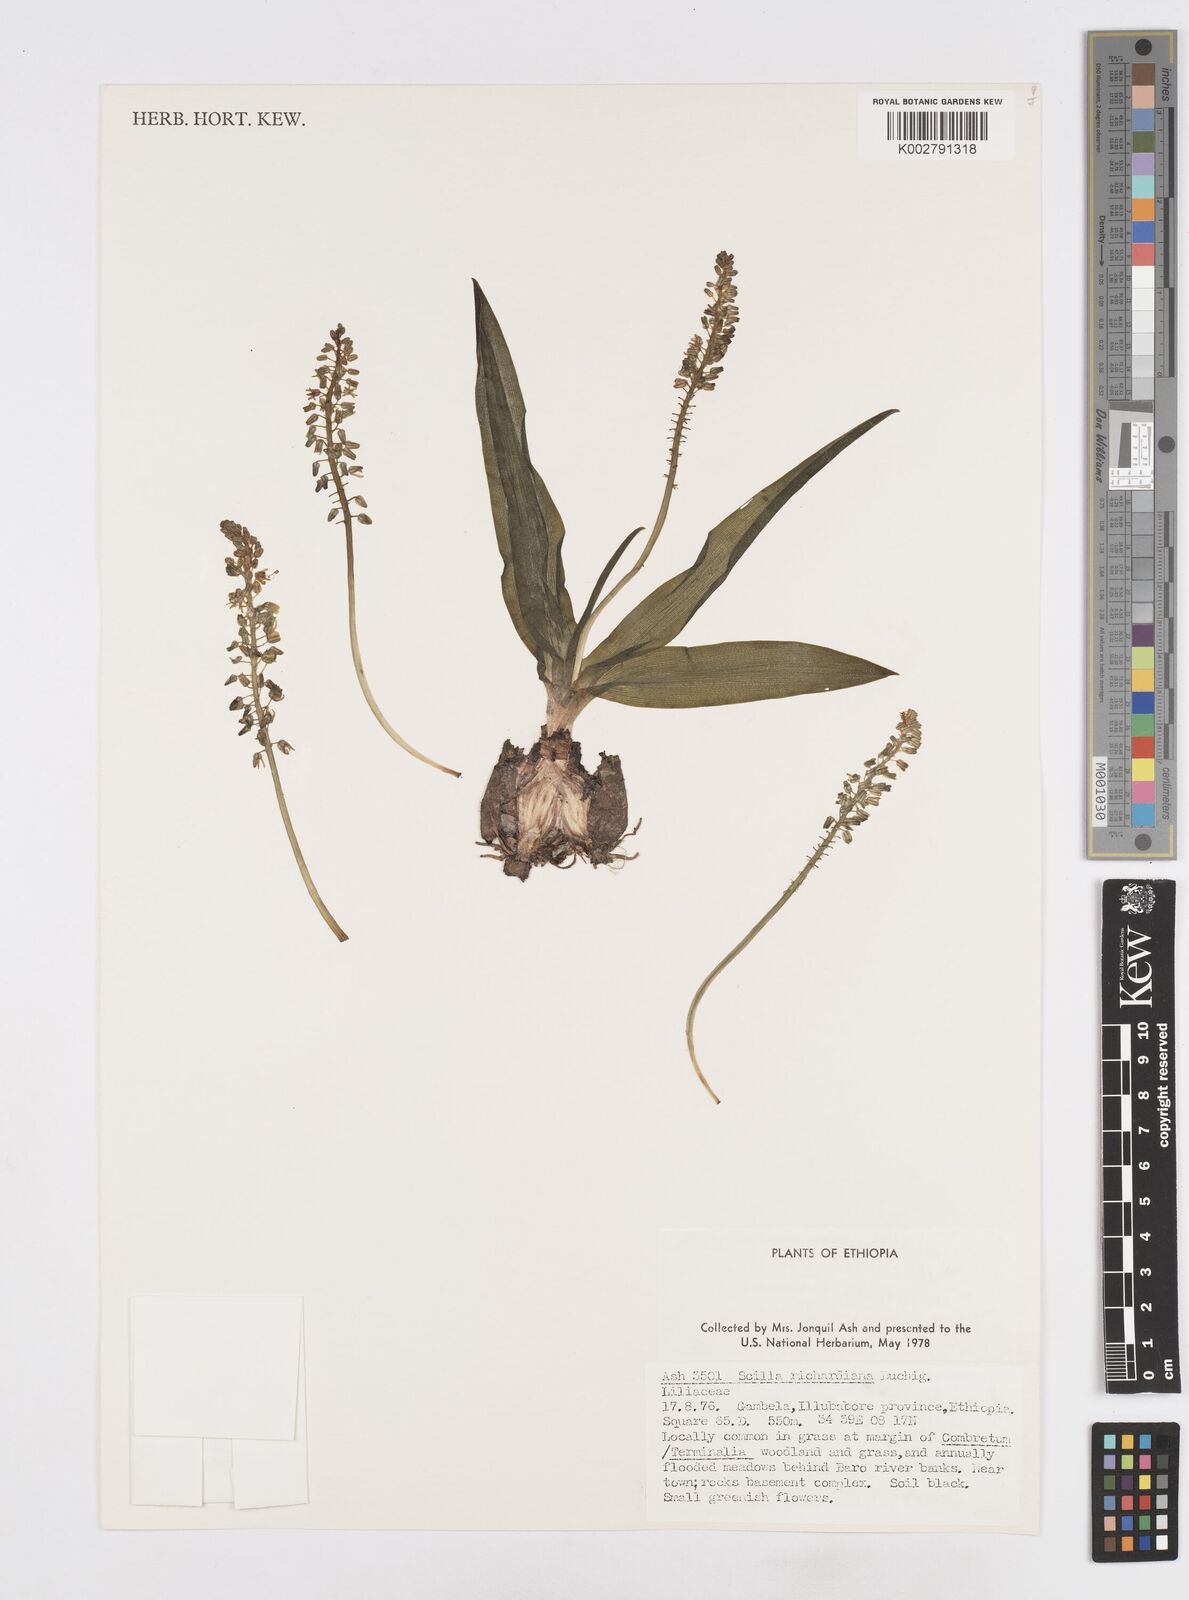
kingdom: Plantae
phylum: Tracheophyta
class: Liliopsida
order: Asparagales
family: Asparagaceae
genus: Ledebouria
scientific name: Ledebouria revoluta
